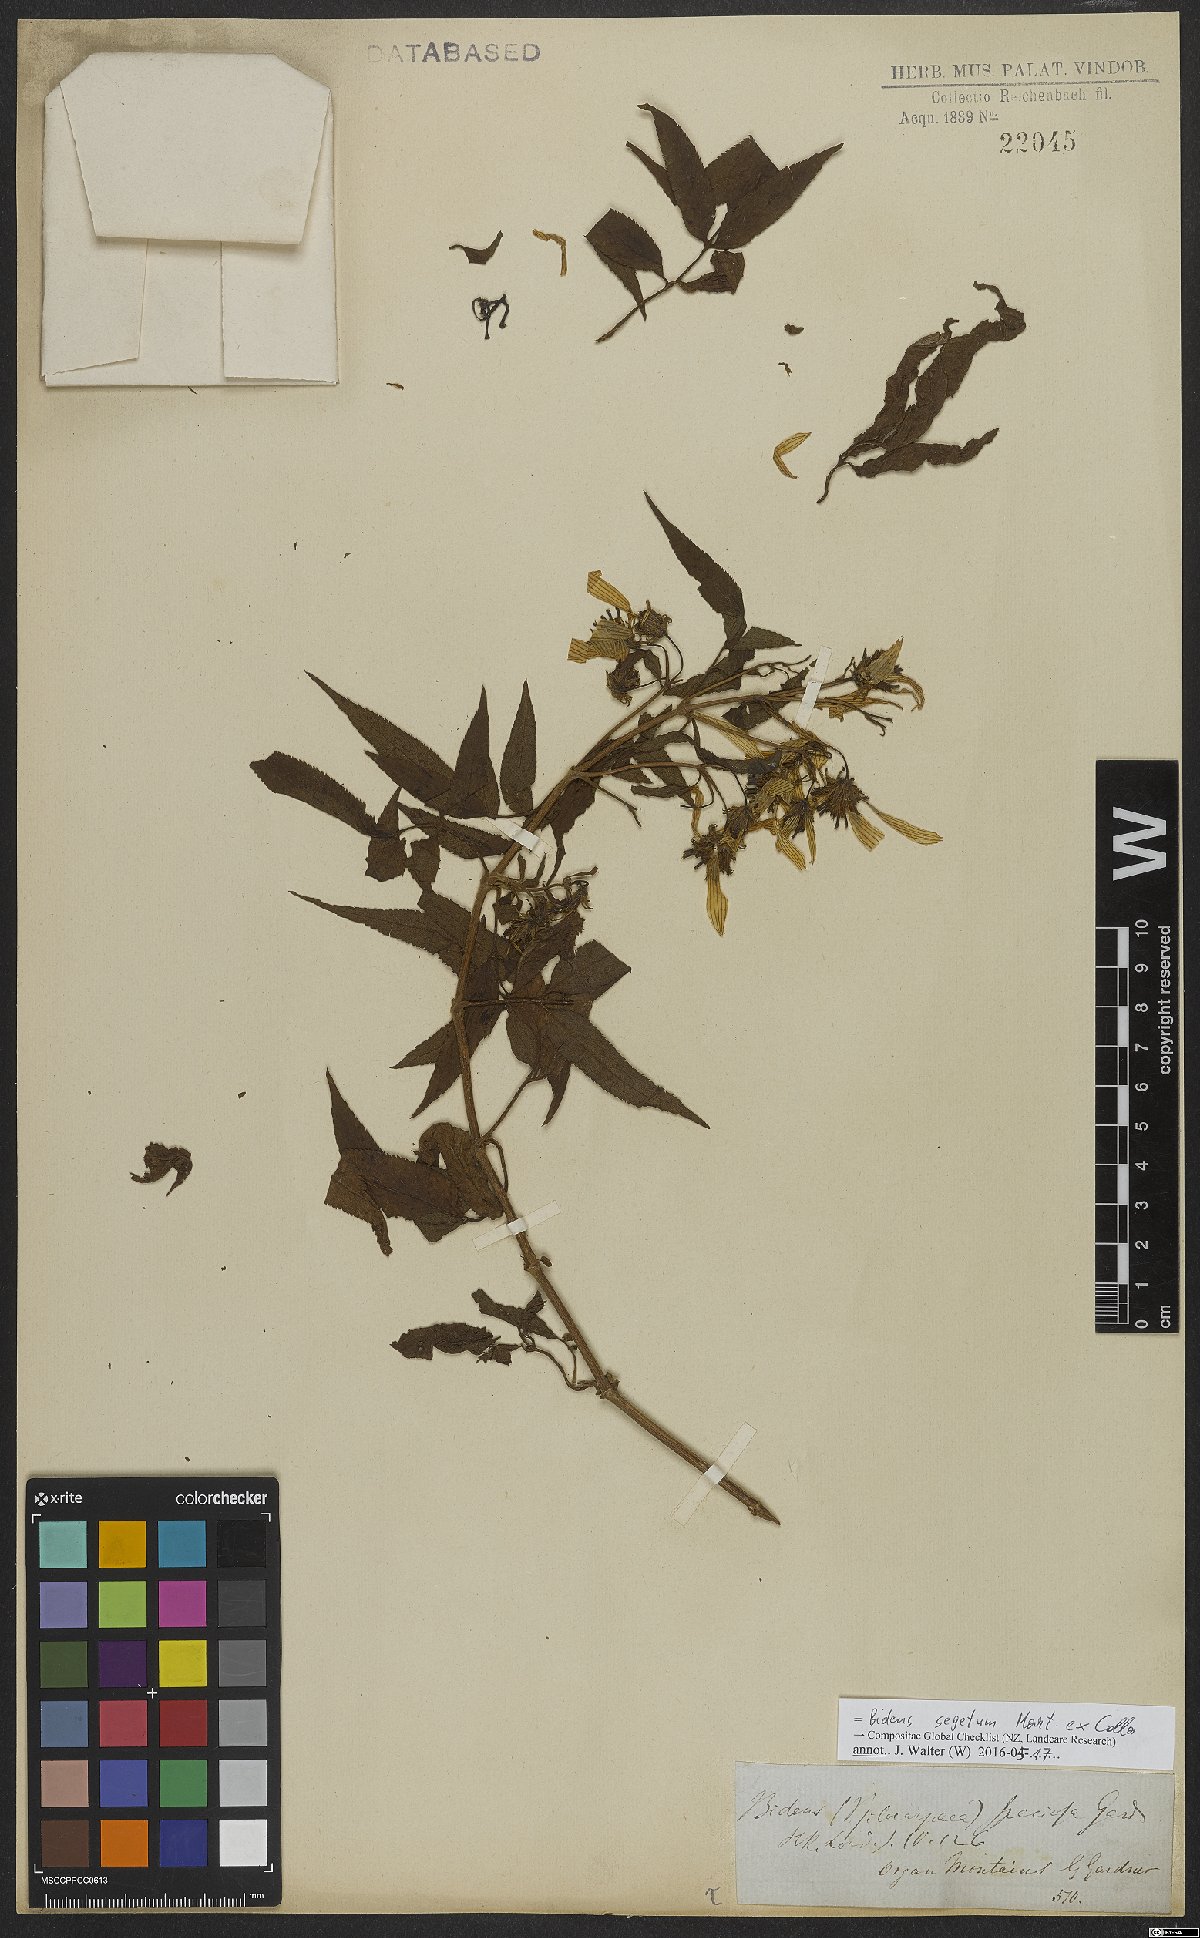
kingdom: Plantae
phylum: Tracheophyta
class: Magnoliopsida
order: Asterales
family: Asteraceae
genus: Bidens
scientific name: Bidens segetum
